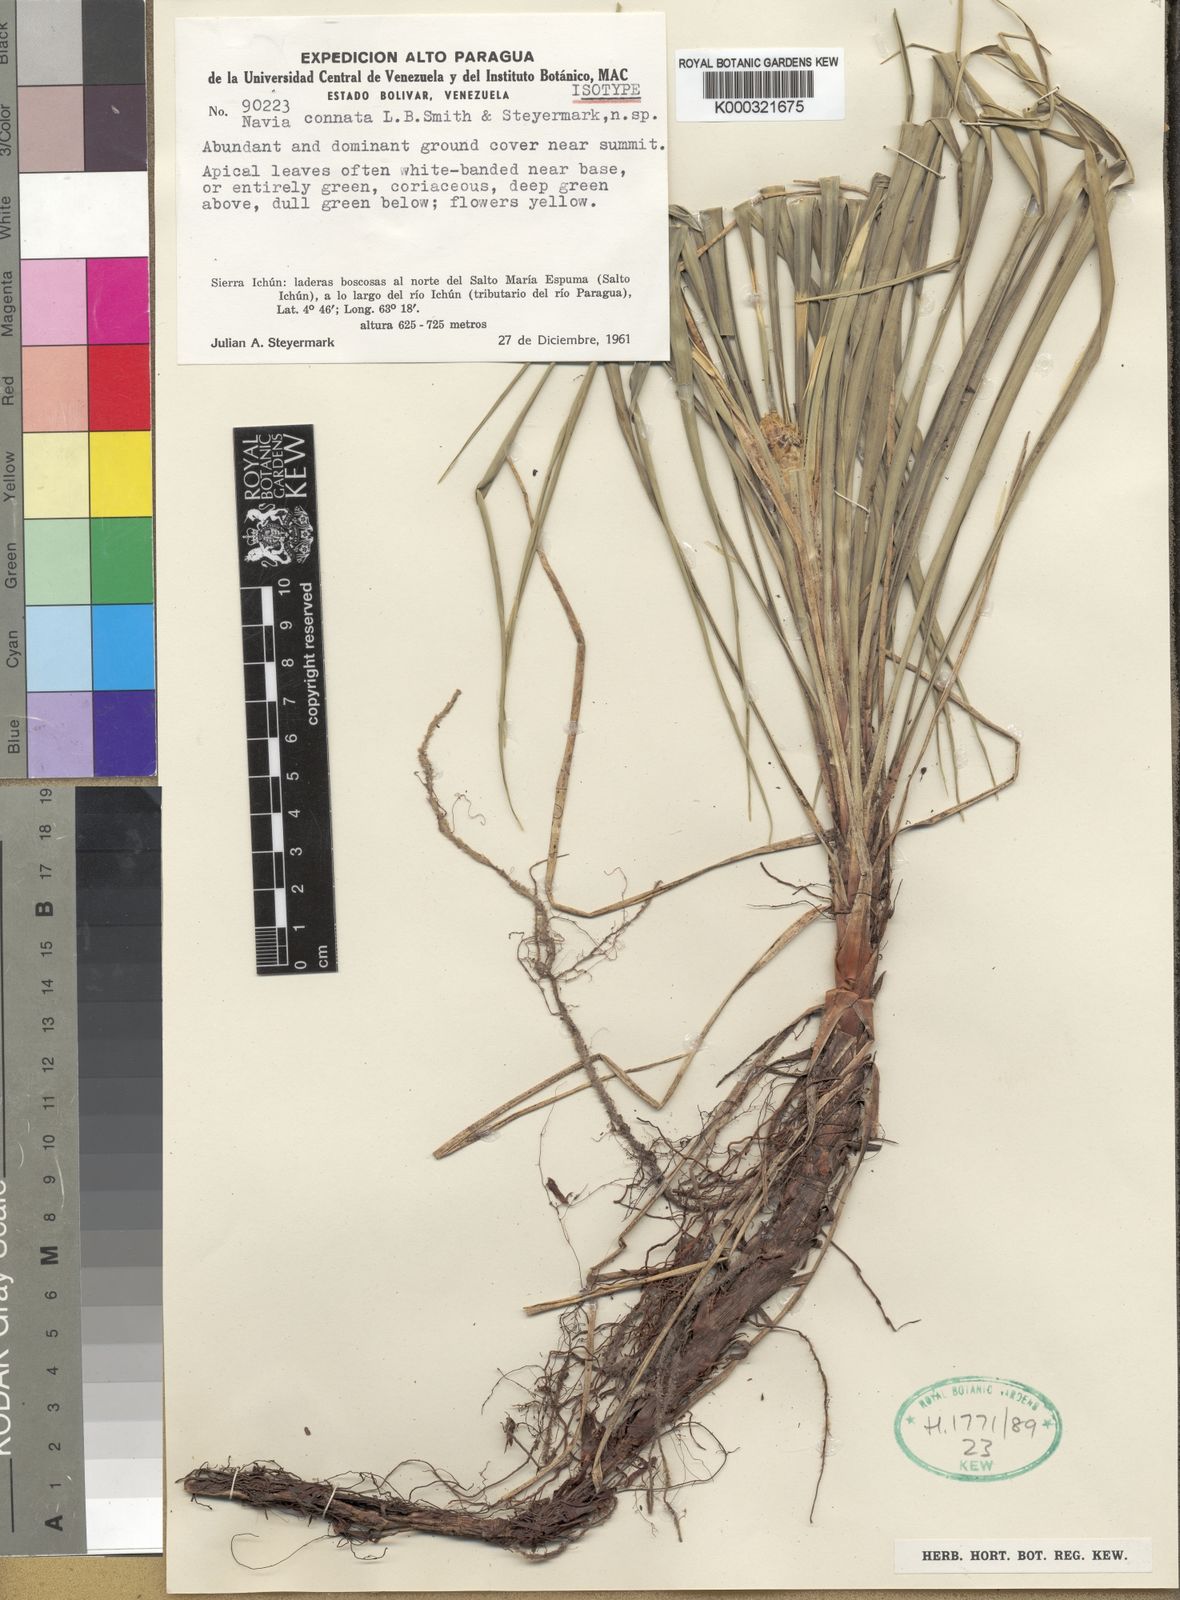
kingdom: Plantae
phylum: Tracheophyta
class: Liliopsida
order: Poales
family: Bromeliaceae
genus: Navia
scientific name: Navia connata
